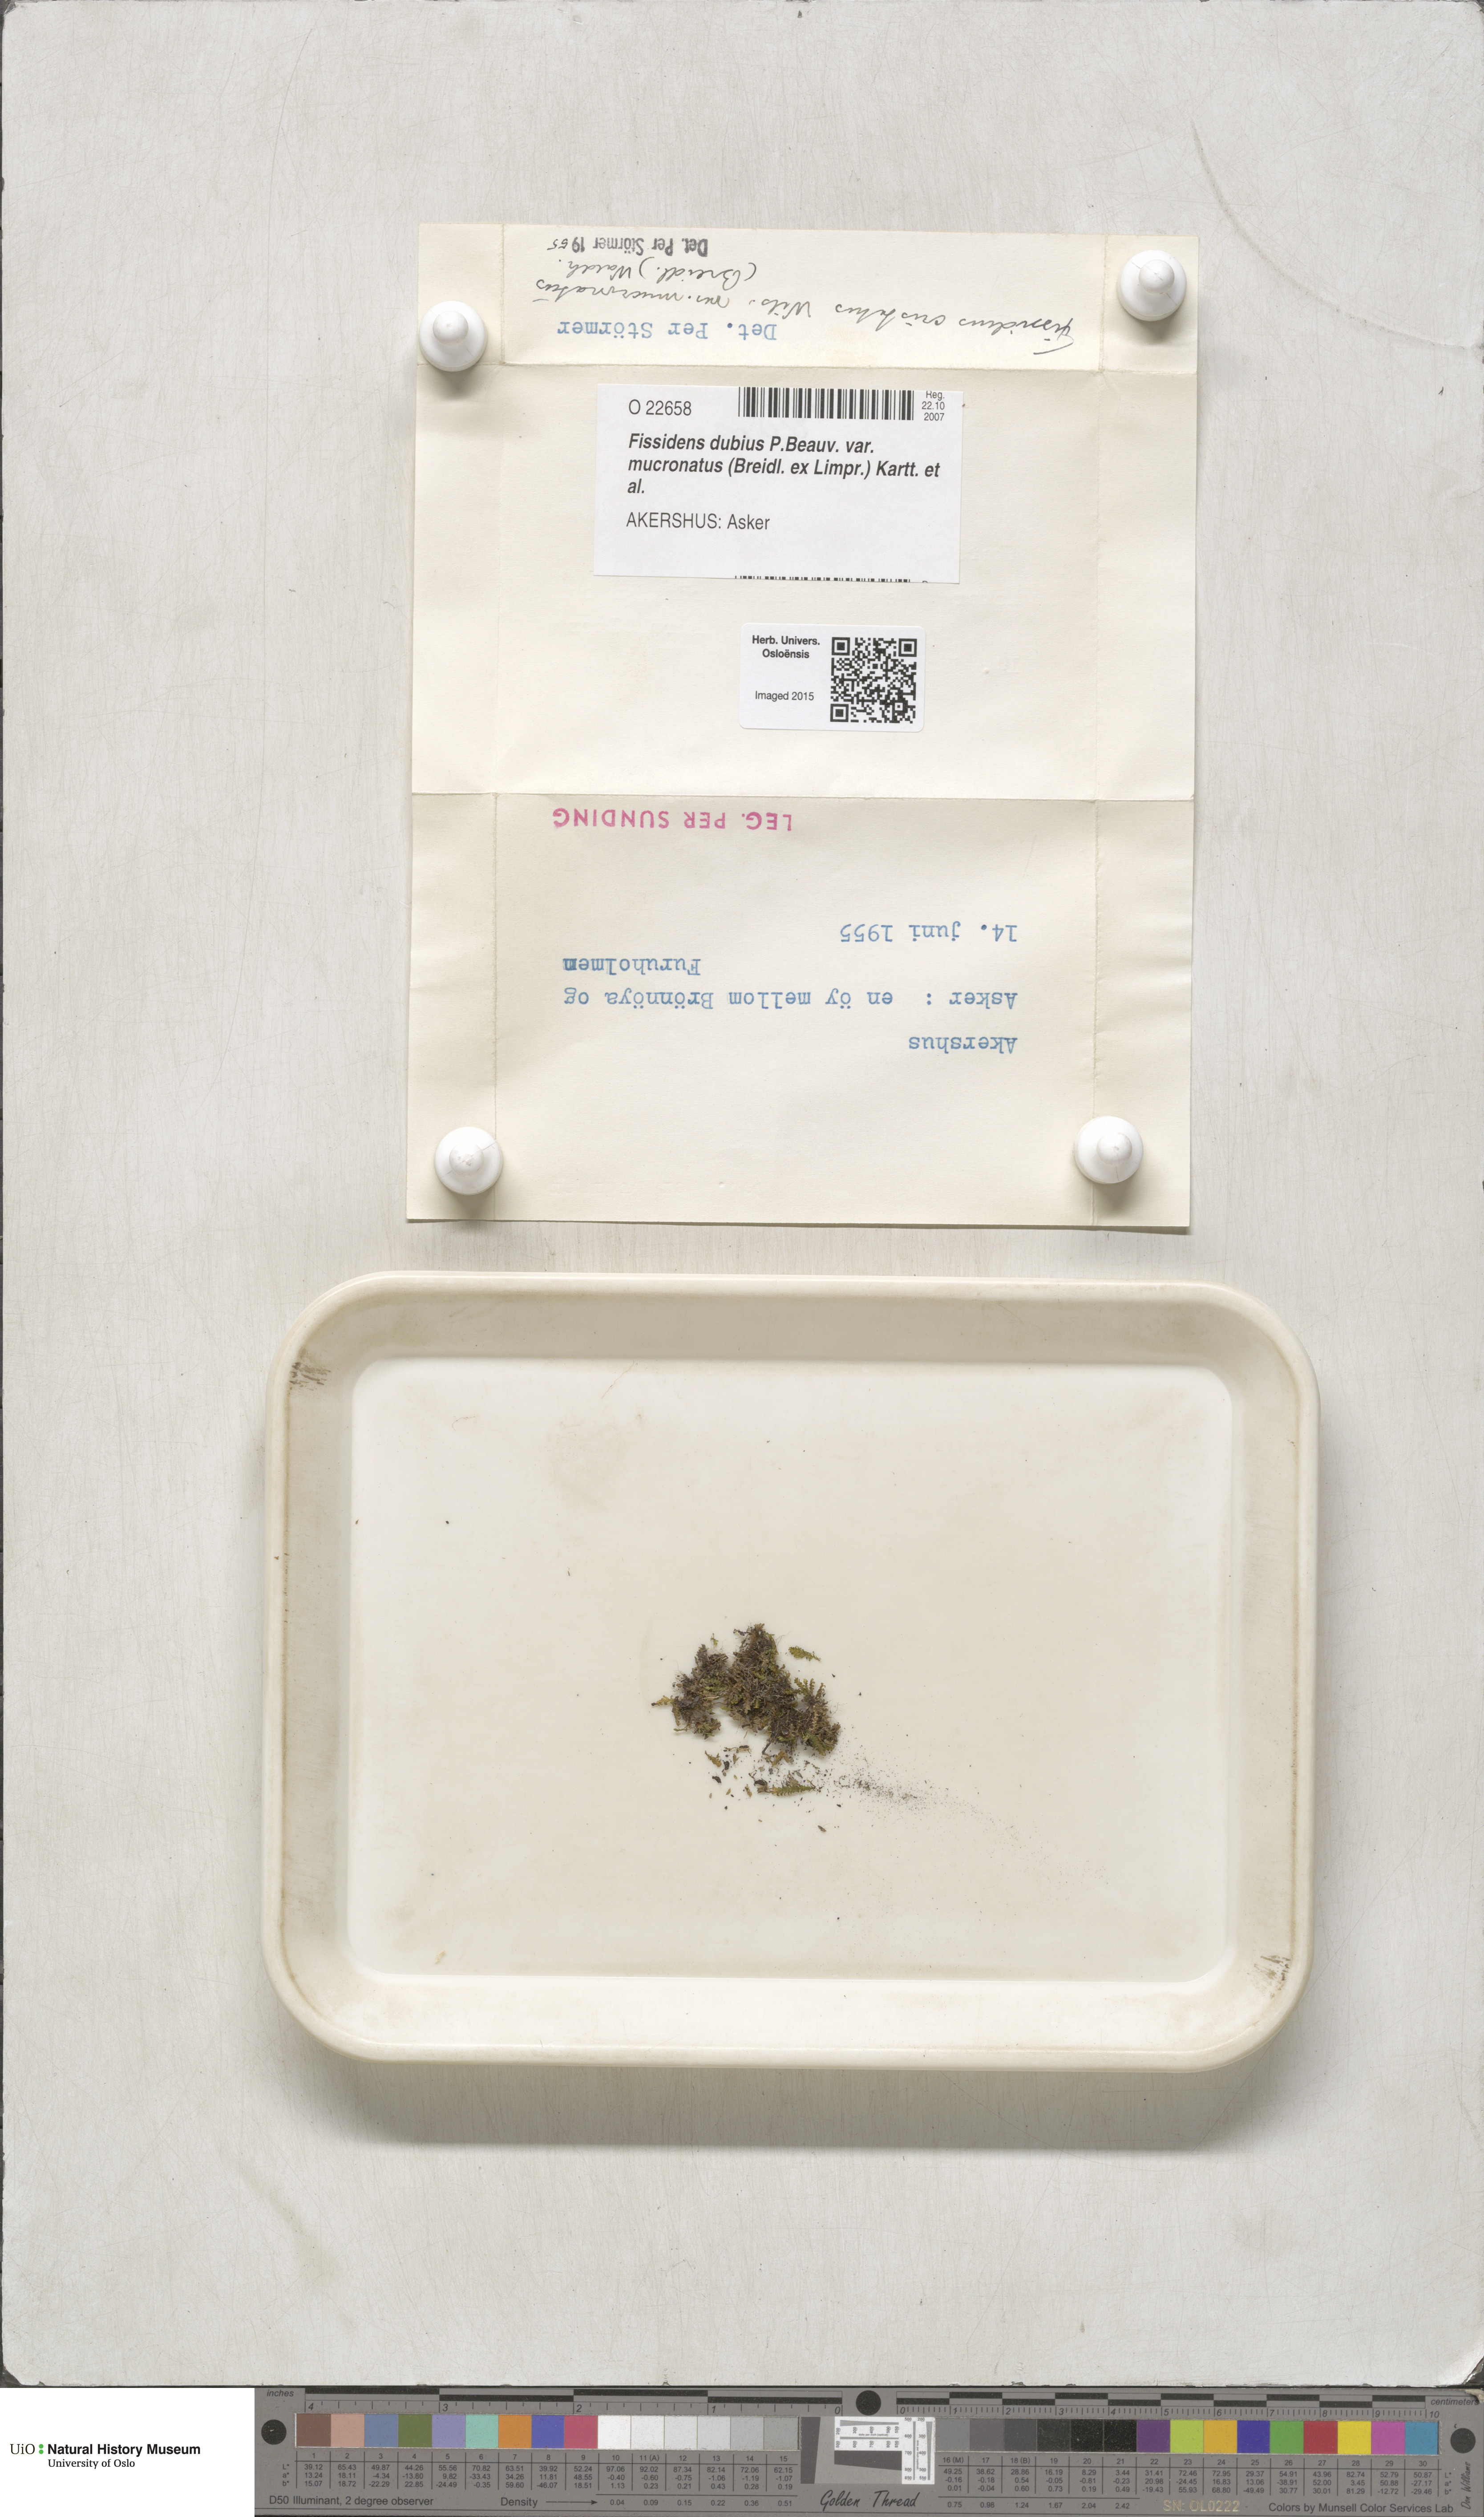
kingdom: Plantae
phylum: Bryophyta
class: Bryopsida
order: Dicranales
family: Fissidentaceae
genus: Fissidens
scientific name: Fissidens dubius
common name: Rock pocket moss
